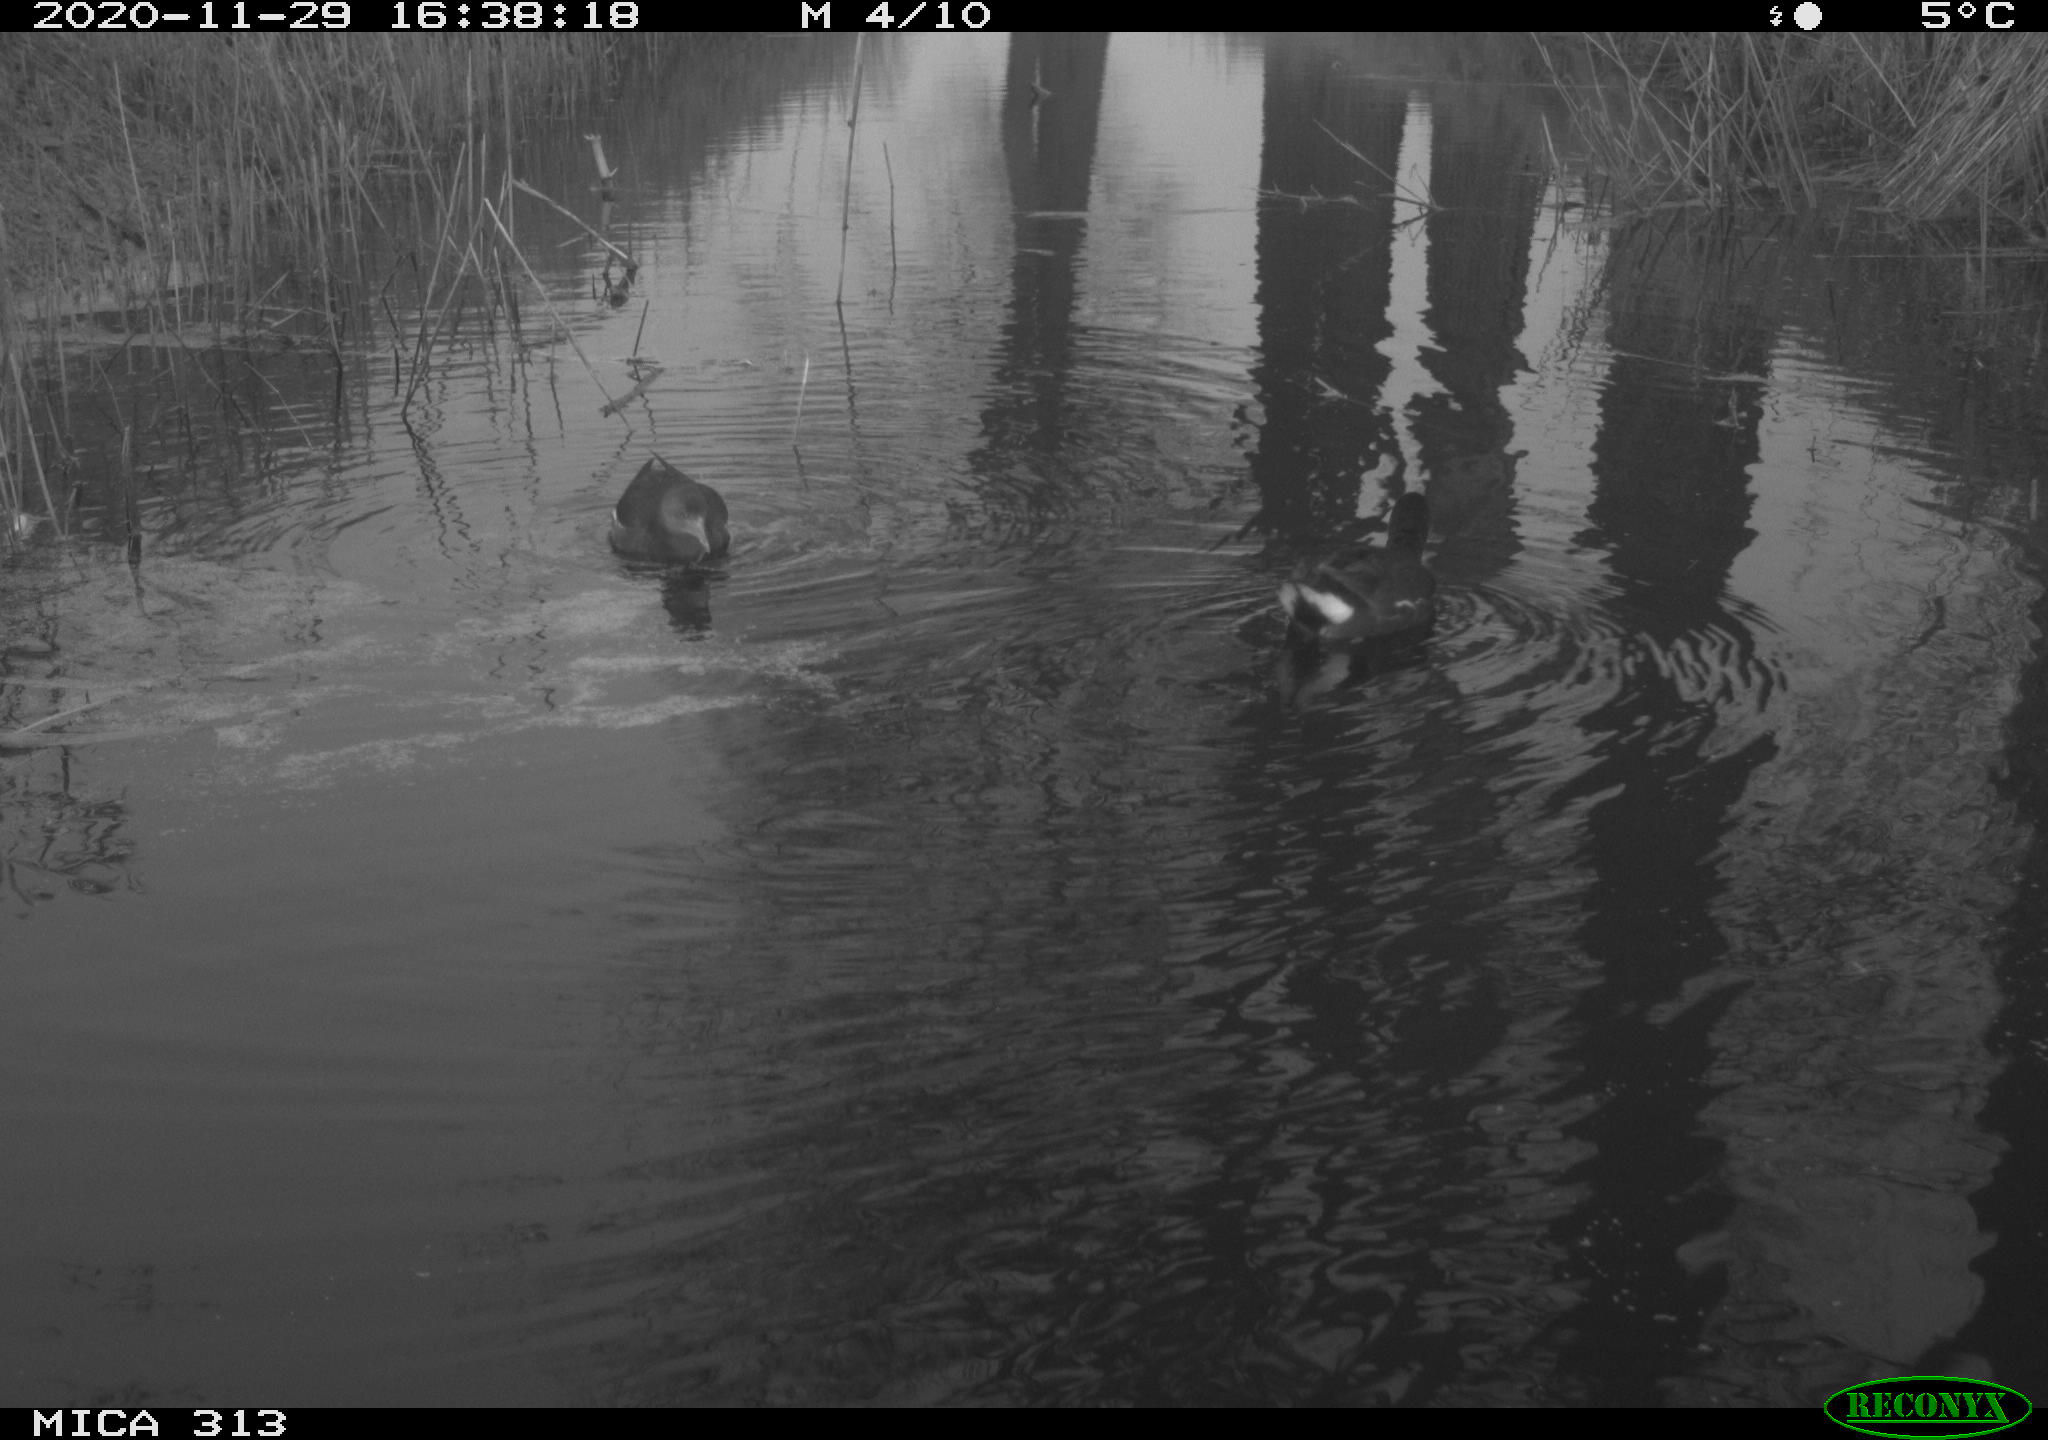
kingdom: Animalia
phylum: Chordata
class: Aves
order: Gruiformes
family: Rallidae
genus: Gallinula
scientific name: Gallinula chloropus
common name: Common moorhen
